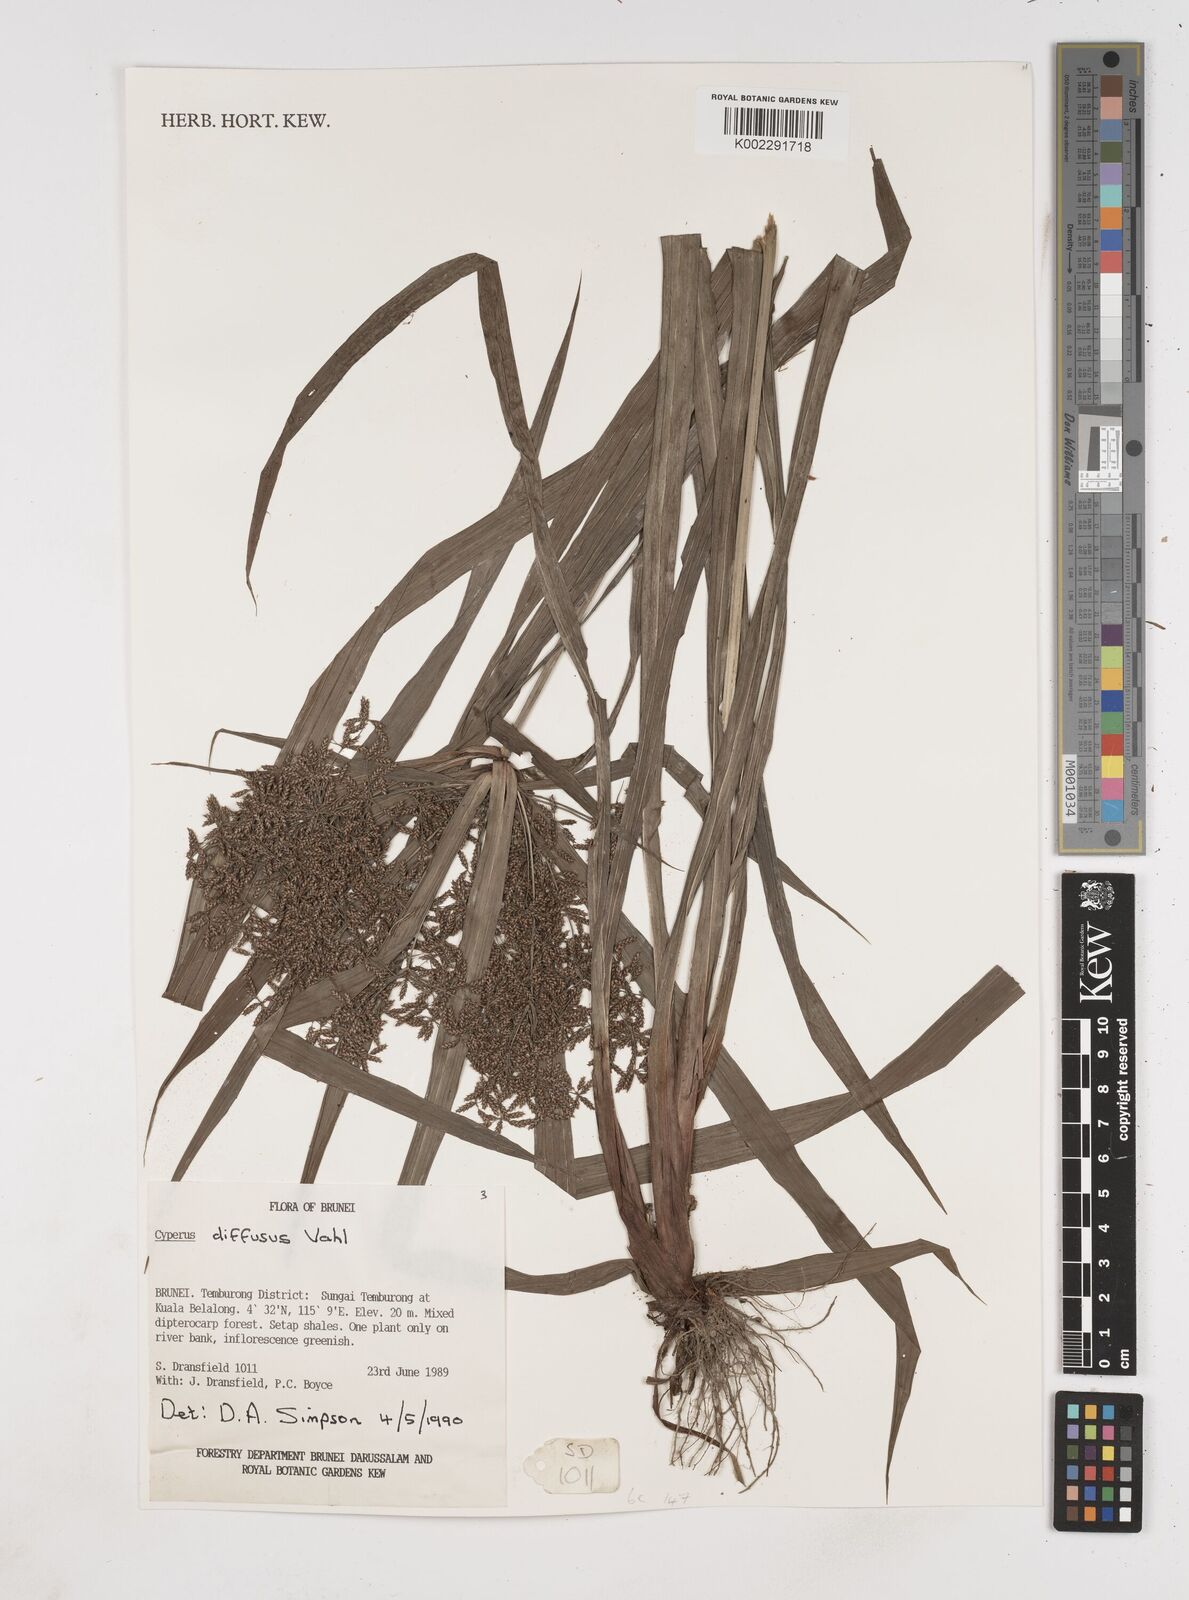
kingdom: Plantae
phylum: Tracheophyta
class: Liliopsida
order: Poales
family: Cyperaceae
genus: Cyperus
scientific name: Cyperus diffusus
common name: Dwarf umbrella grass
